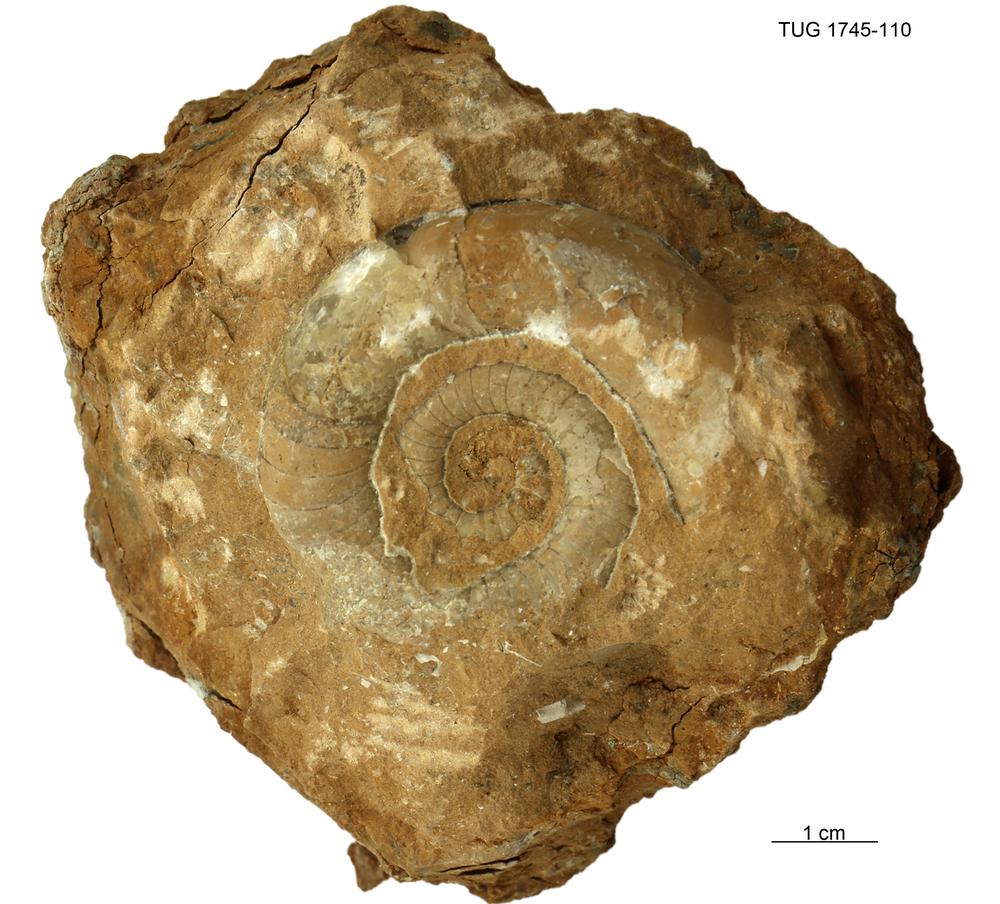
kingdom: Animalia
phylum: Mollusca
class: Cephalopoda
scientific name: Cephalopoda
